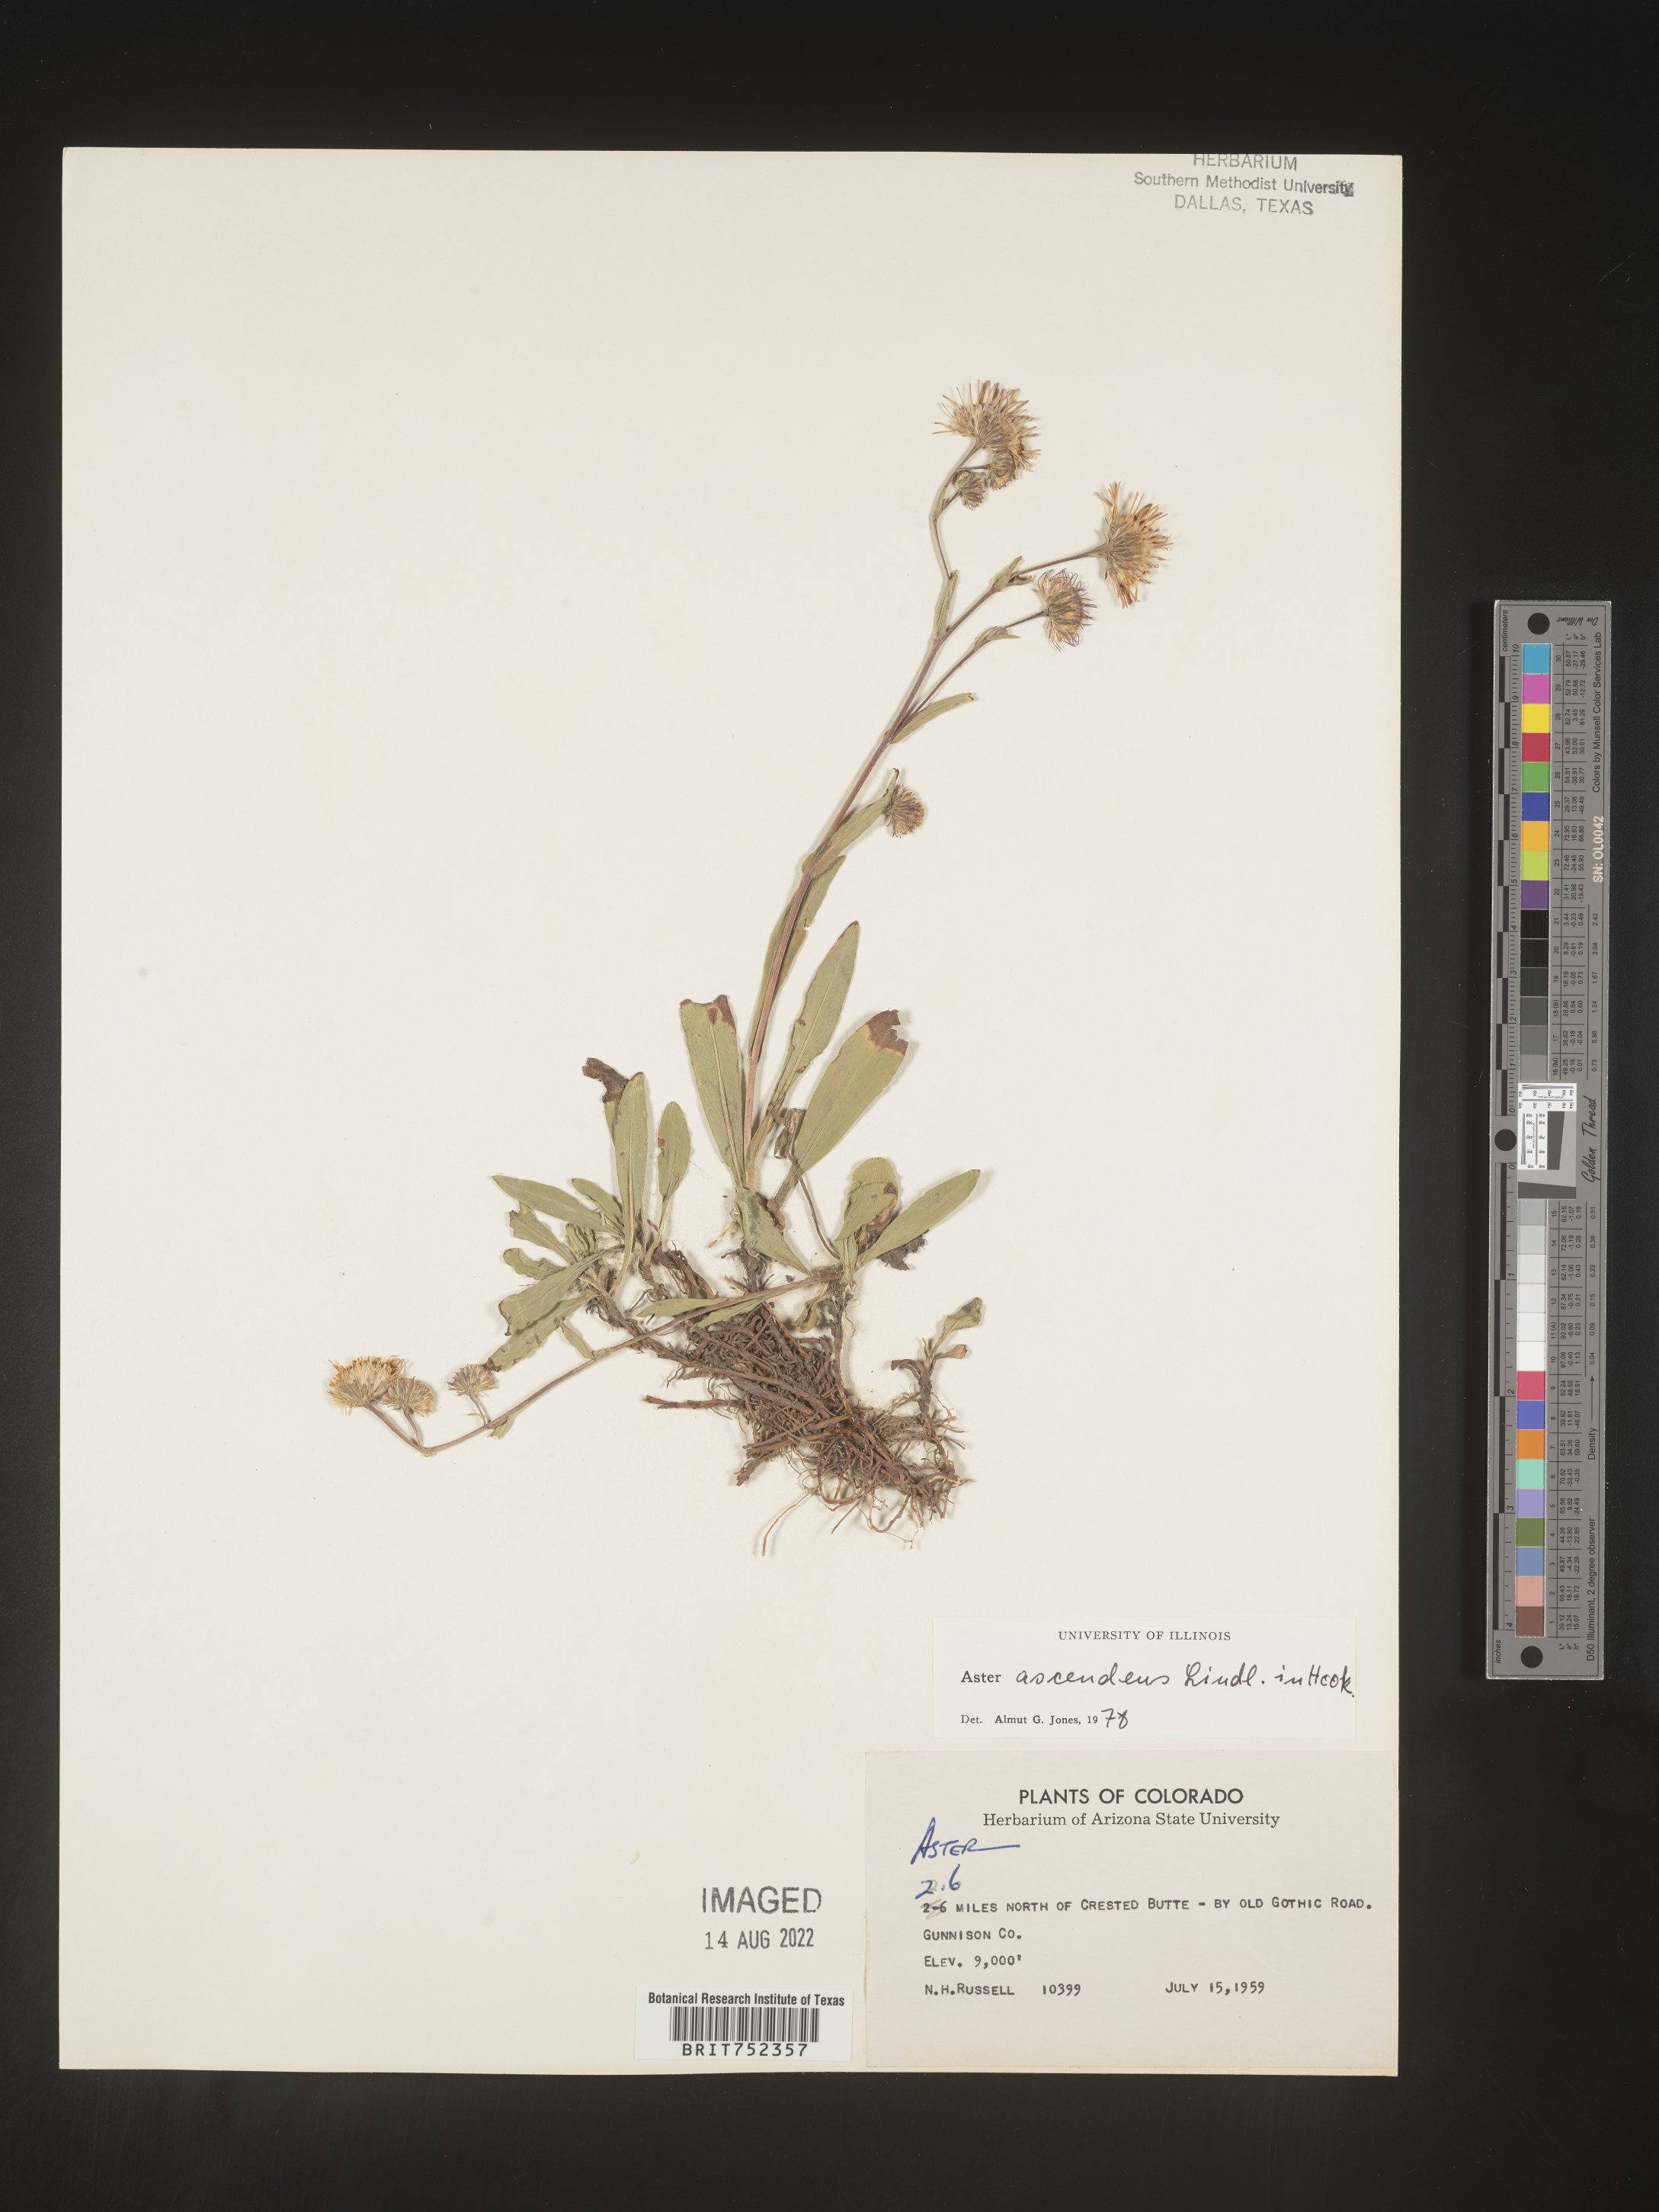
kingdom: Plantae
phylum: Tracheophyta
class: Magnoliopsida
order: Asterales
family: Asteraceae
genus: Symphyotrichum
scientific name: Symphyotrichum foliaceum
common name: Leafy aster
